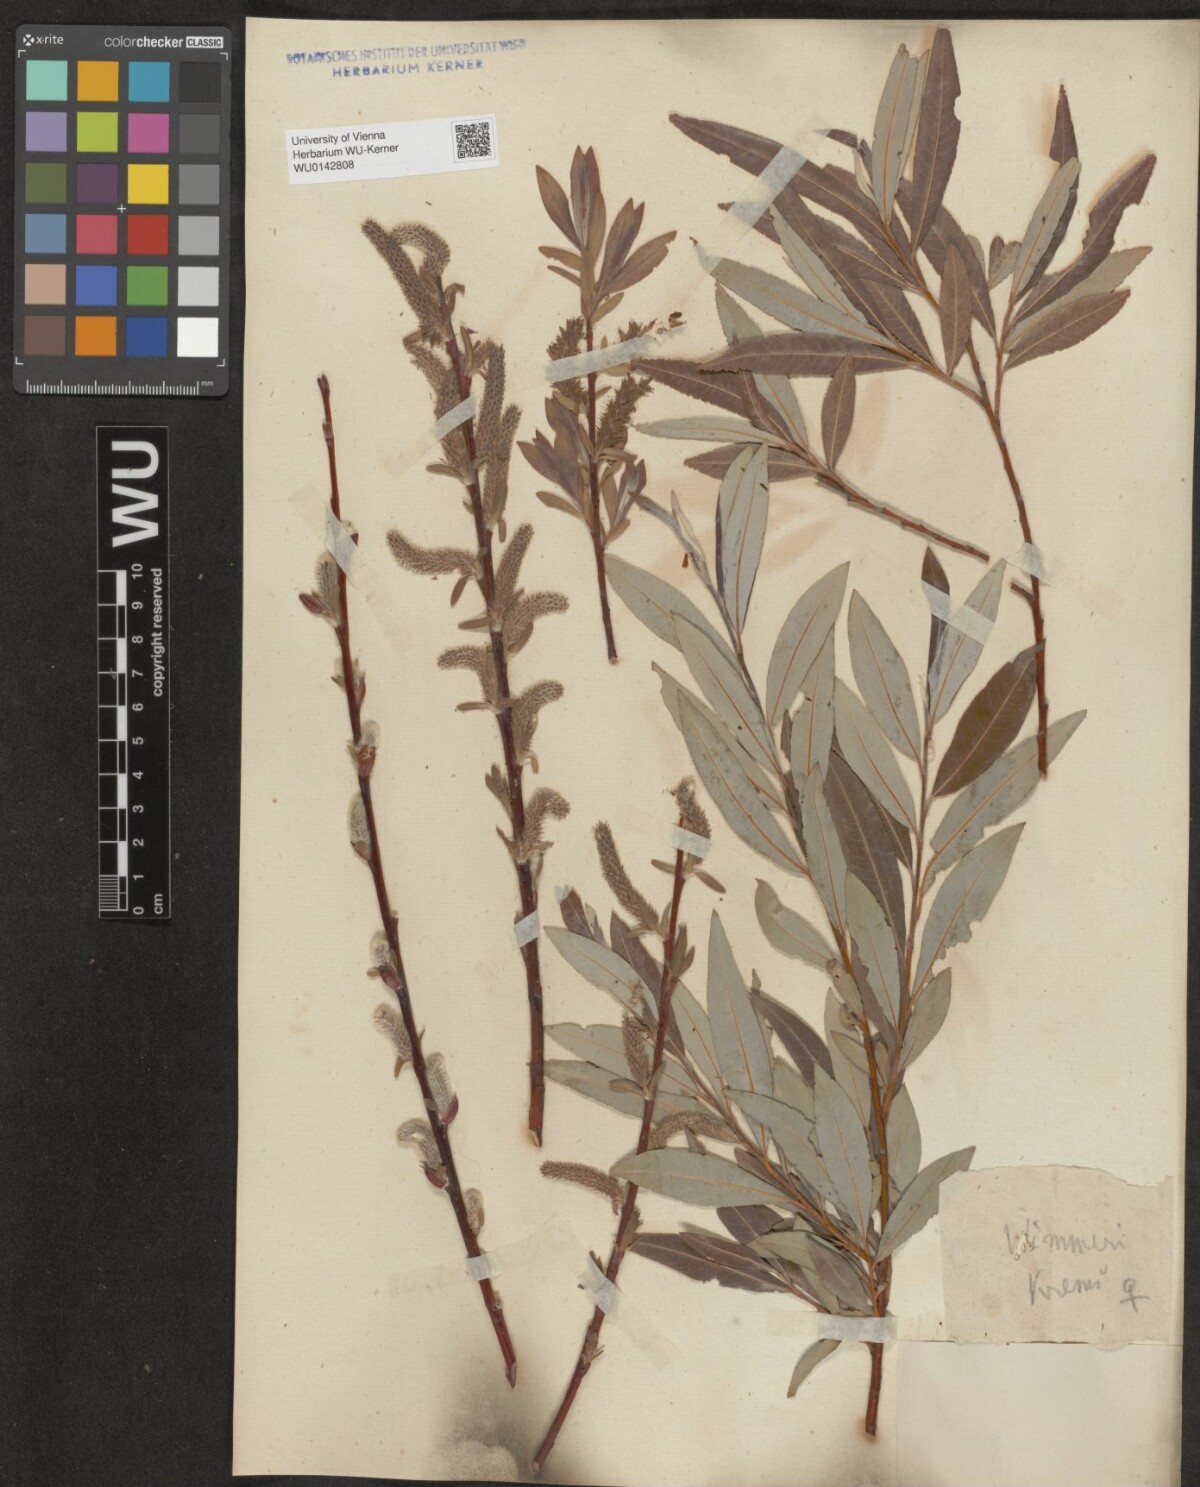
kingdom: Plantae
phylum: Tracheophyta
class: Magnoliopsida
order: Malpighiales
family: Salicaceae
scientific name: Salicaceae
